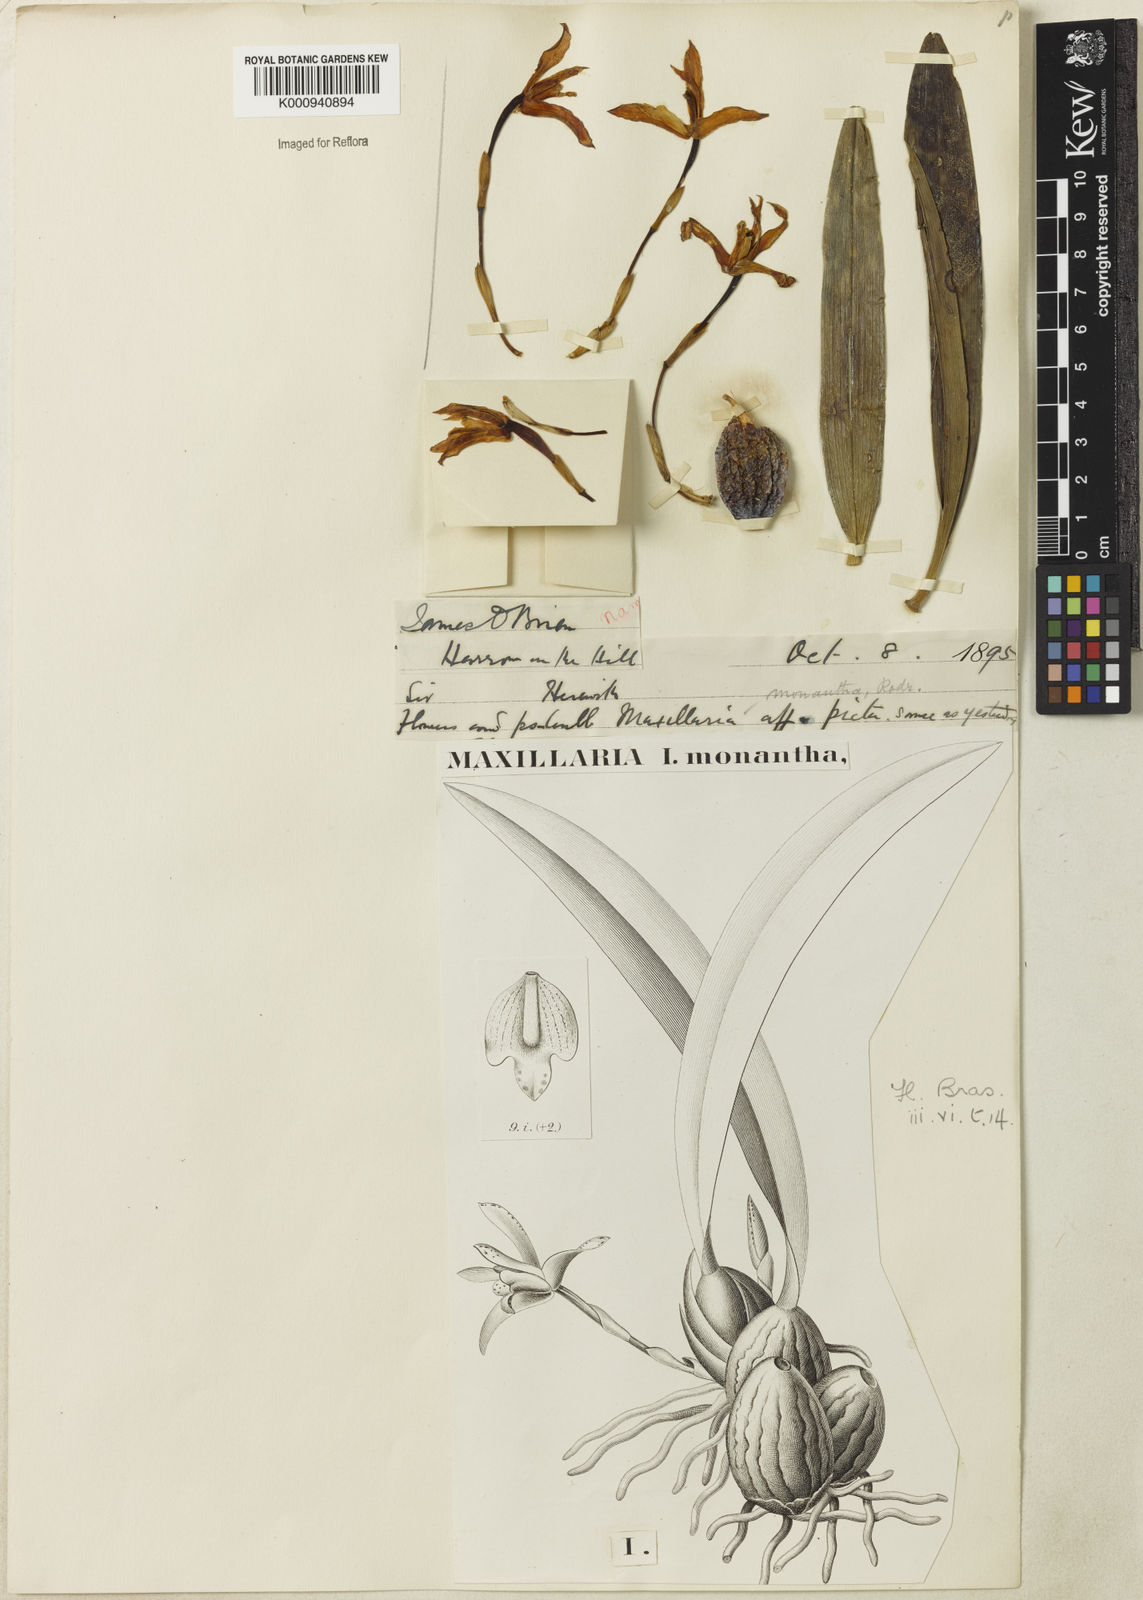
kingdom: Plantae
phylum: Tracheophyta
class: Liliopsida
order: Asparagales
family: Orchidaceae
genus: Maxillaria
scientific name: Maxillaria monantha
